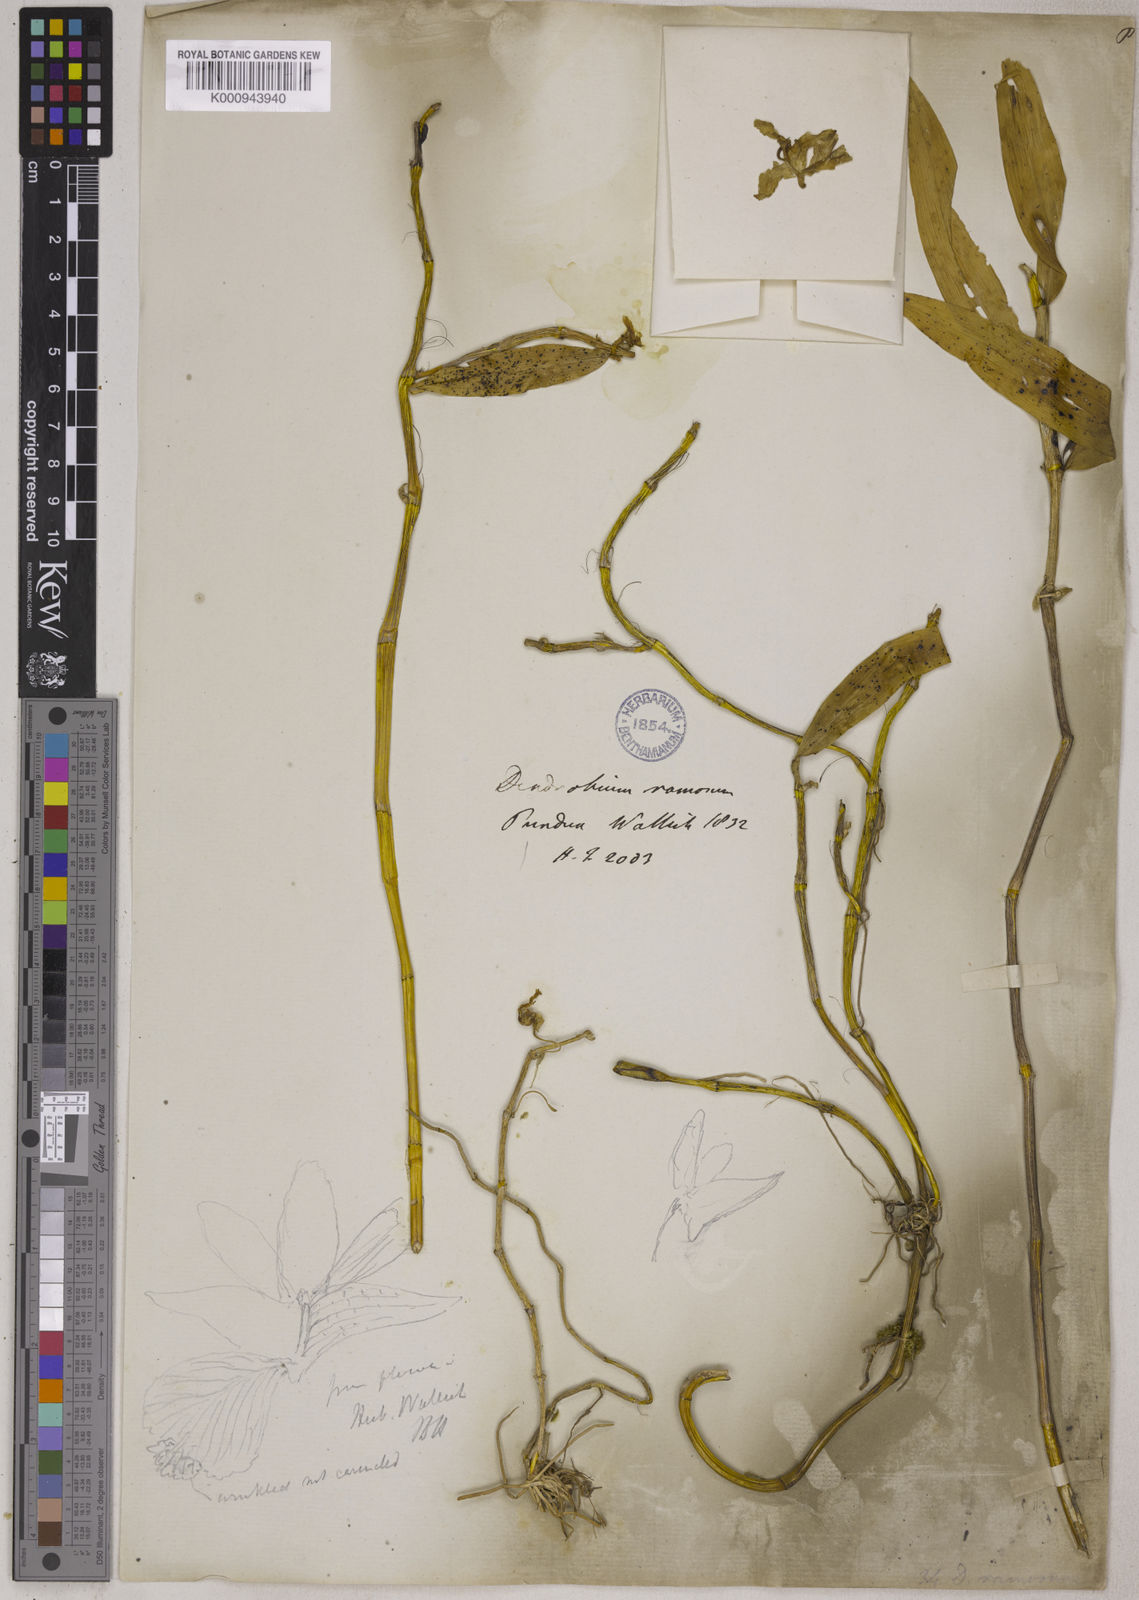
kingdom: Plantae
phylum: Tracheophyta
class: Liliopsida
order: Asparagales
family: Orchidaceae
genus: Dendrobium
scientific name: Dendrobium ruckeri
